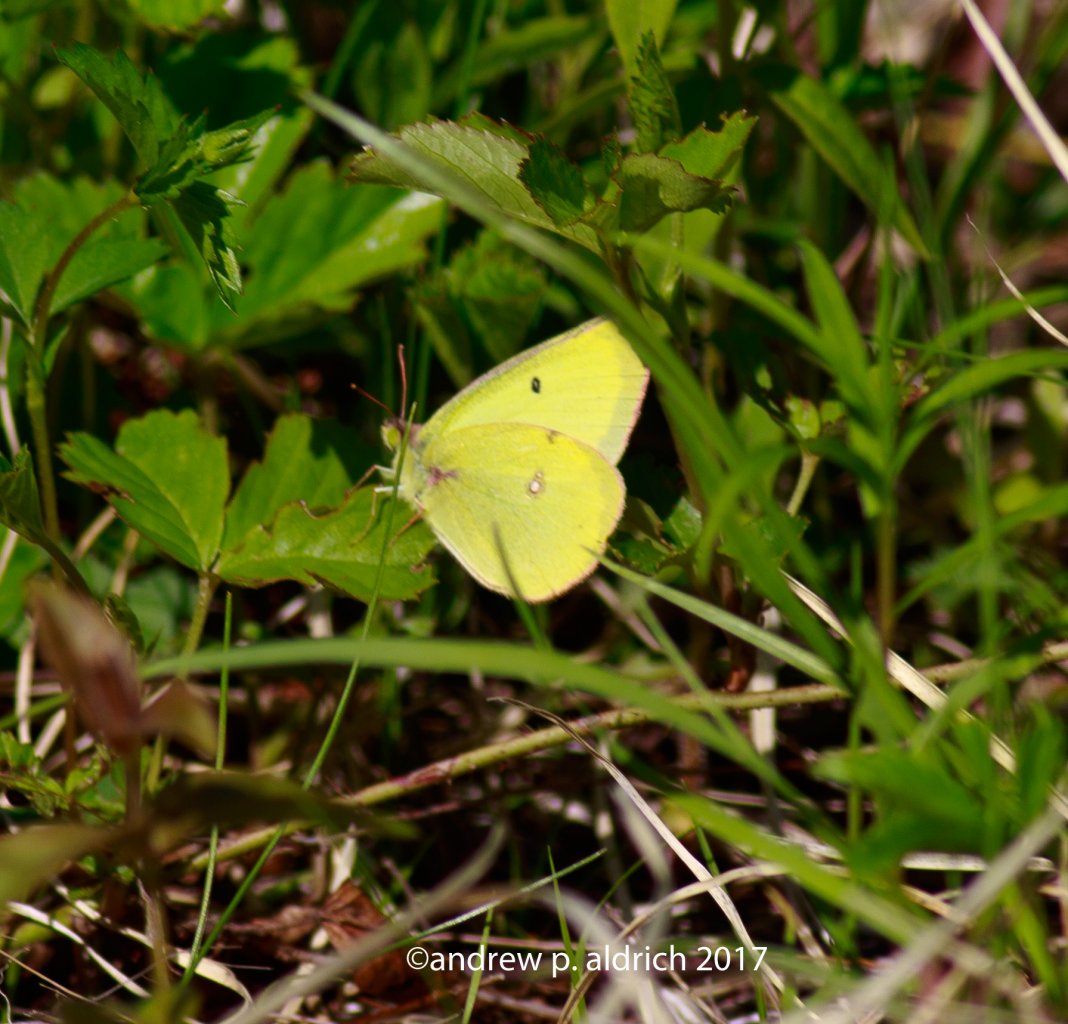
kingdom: Animalia
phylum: Arthropoda
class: Insecta
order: Lepidoptera
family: Pieridae
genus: Colias
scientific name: Colias interior
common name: Pink-edged Sulphur
